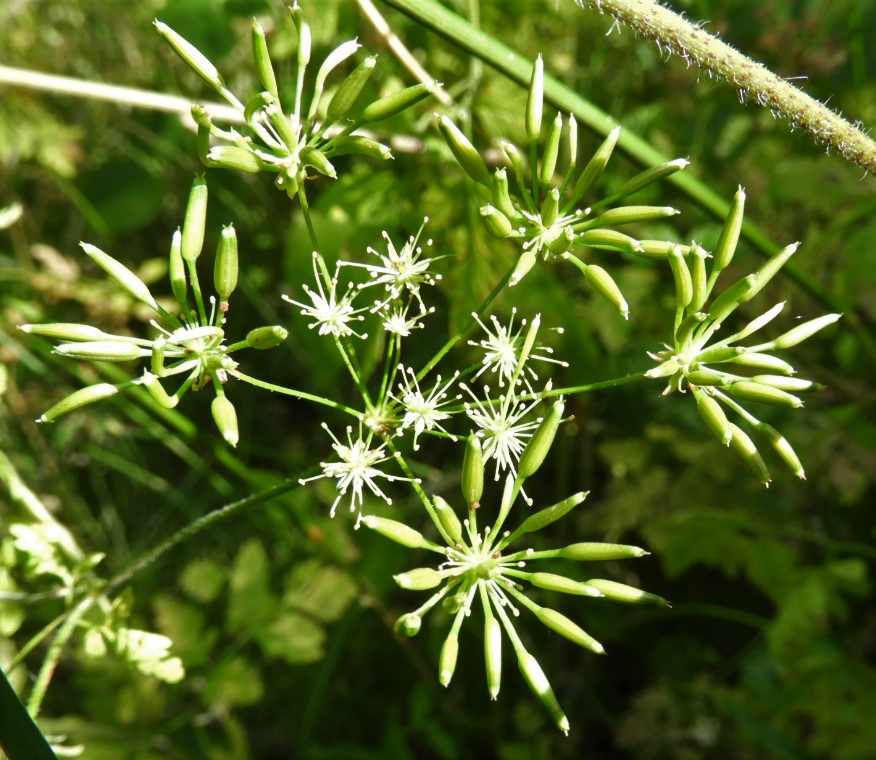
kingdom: Fungi
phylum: Basidiomycota
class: Pucciniomycetes
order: Pucciniales
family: Pucciniaceae
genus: Puccinia
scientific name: Puccinia chaerophylli
